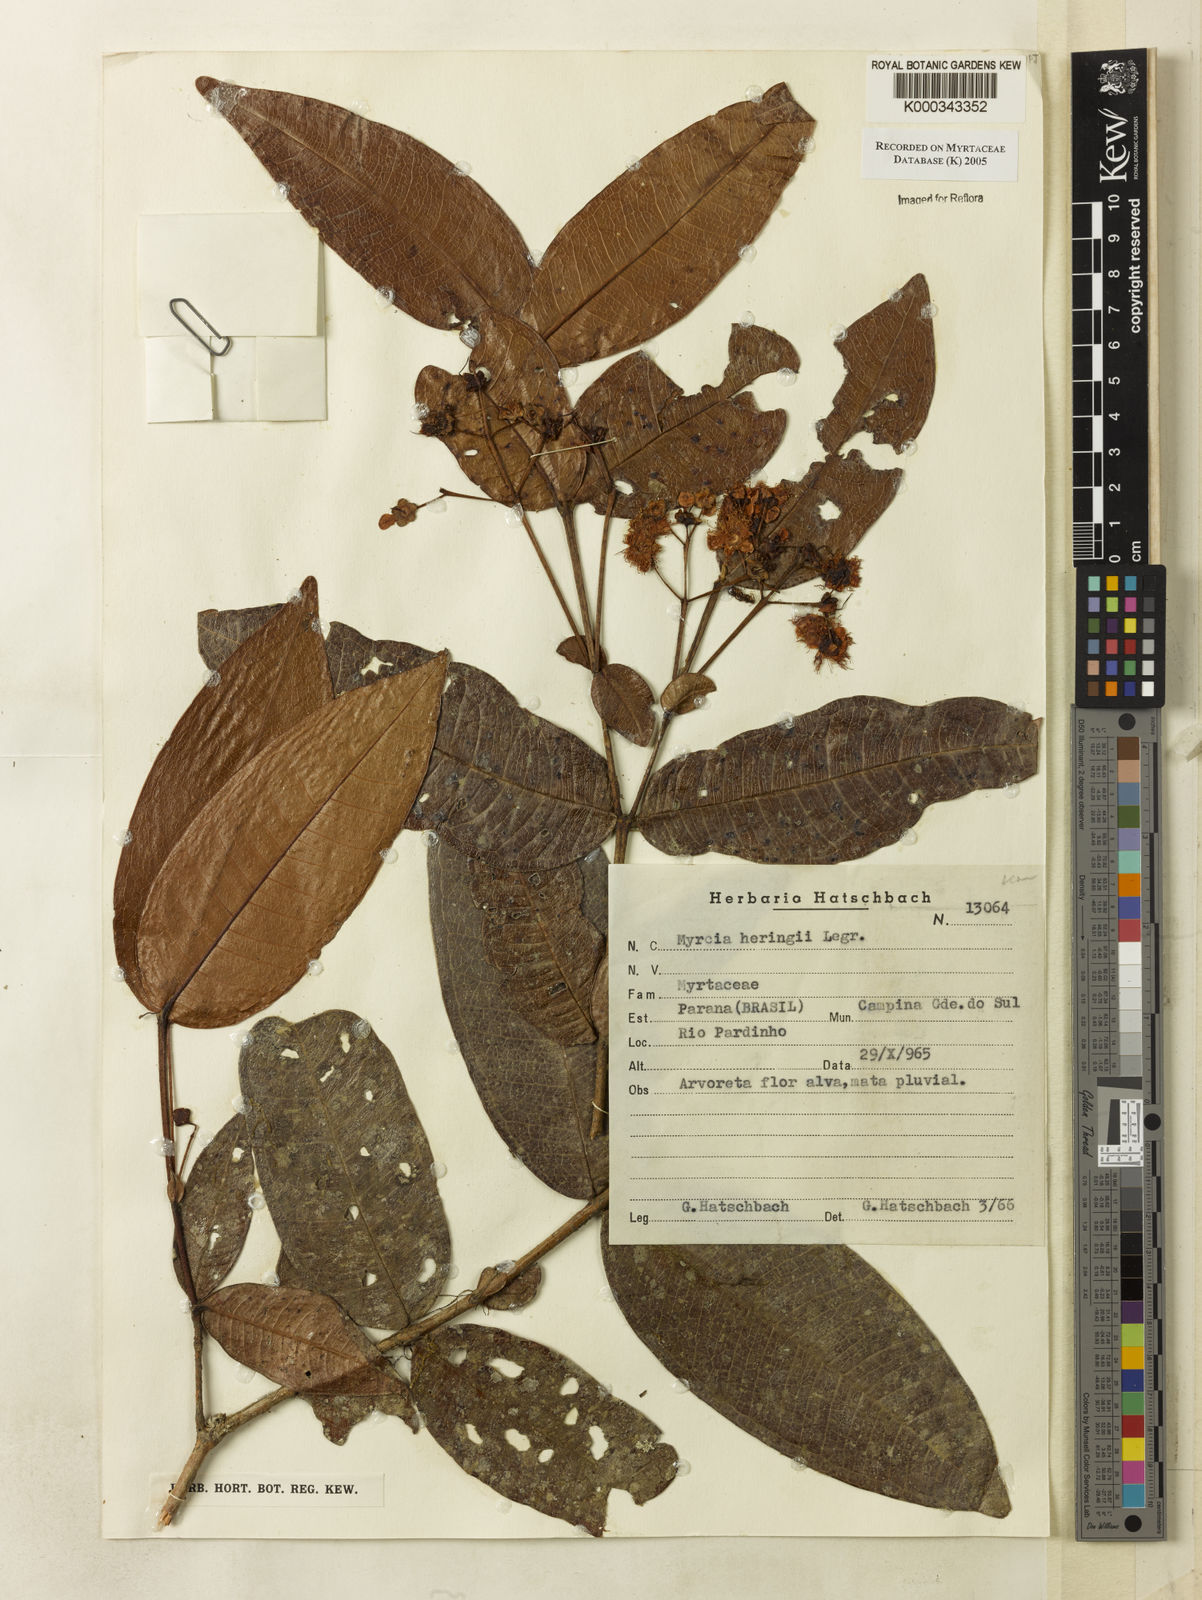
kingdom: Plantae
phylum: Tracheophyta
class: Magnoliopsida
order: Myrtales
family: Myrtaceae
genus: Myrcia
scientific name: Myrcia heringii
